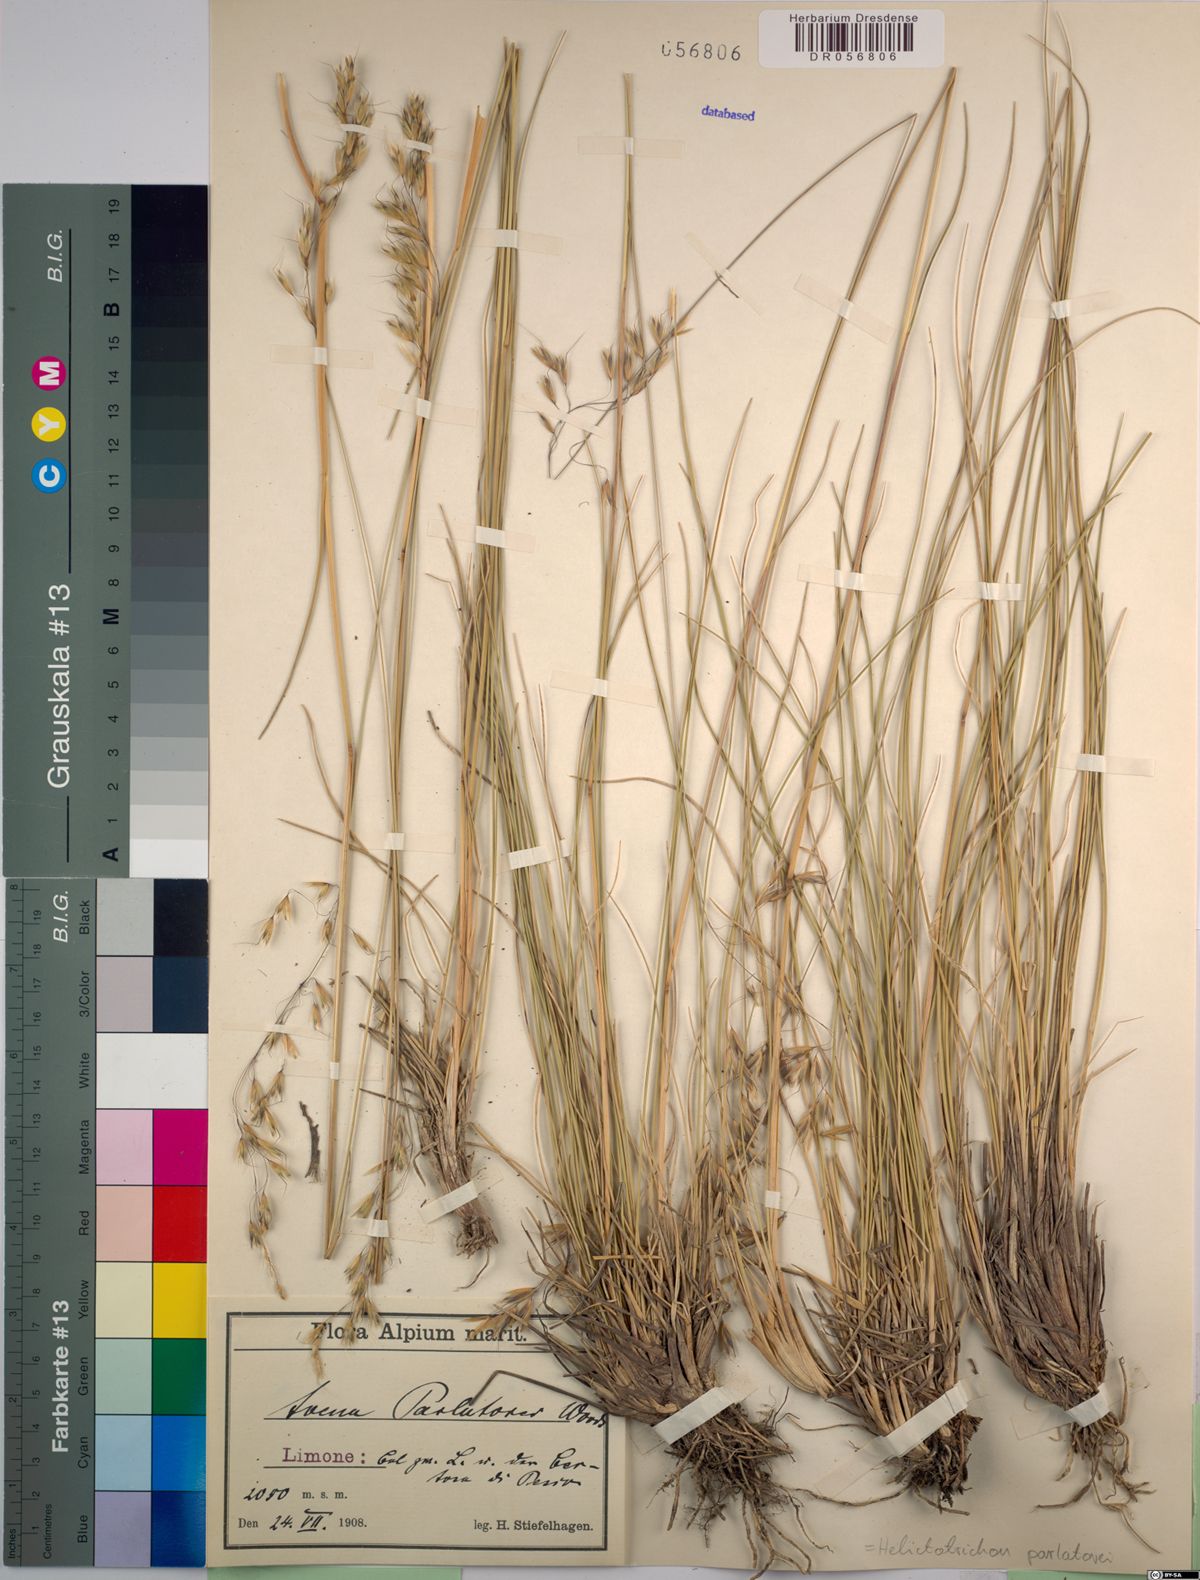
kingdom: Plantae
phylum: Tracheophyta
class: Liliopsida
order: Poales
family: Poaceae
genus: Helictotrichon
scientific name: Helictotrichon parlatorei
